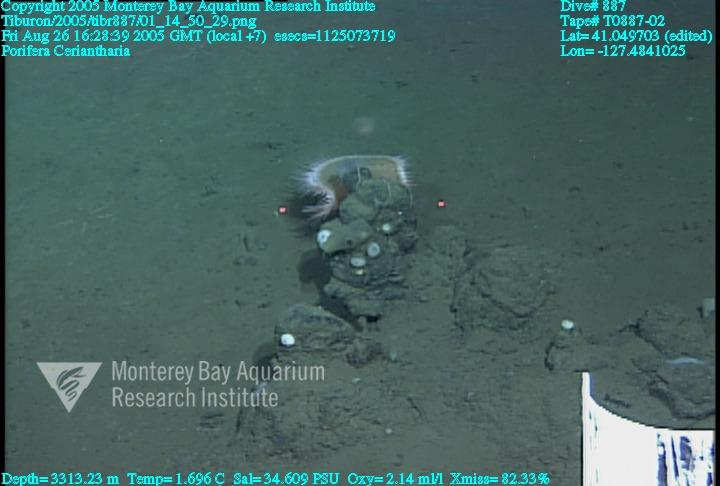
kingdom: Animalia
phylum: Porifera
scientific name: Porifera
